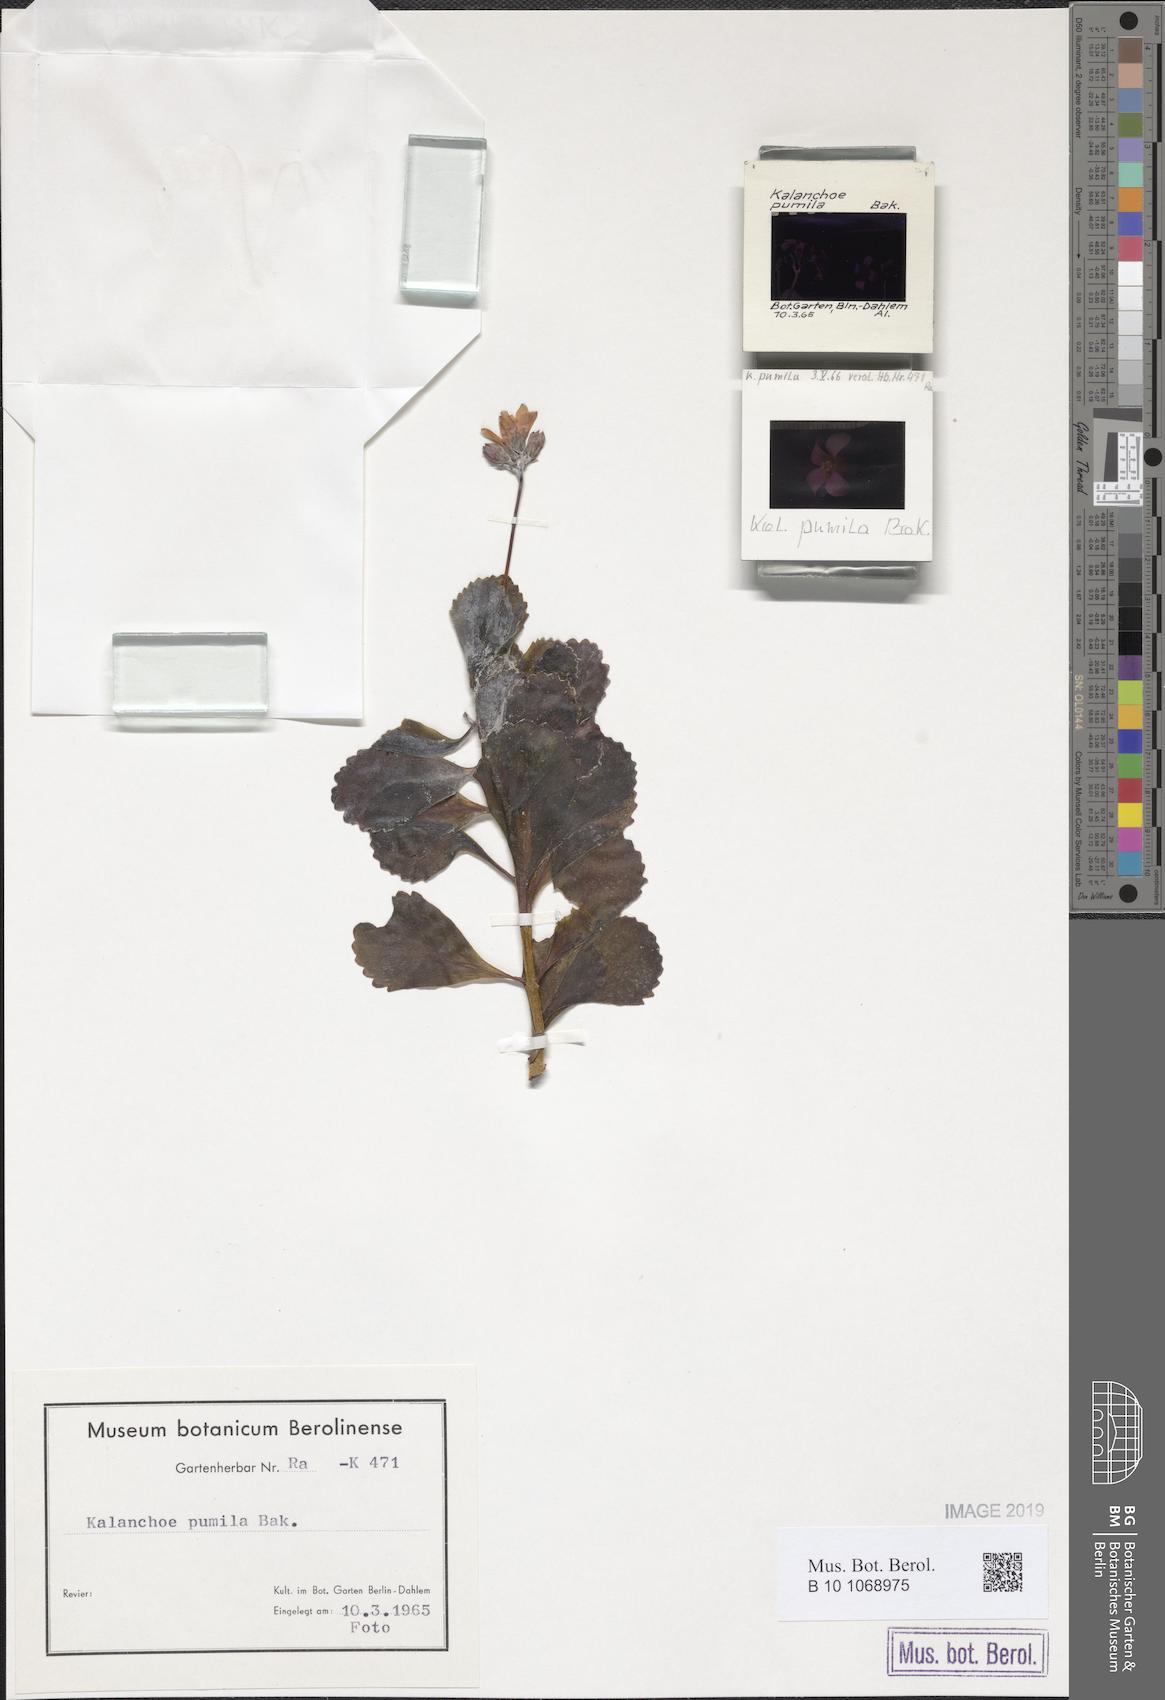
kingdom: Plantae
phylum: Tracheophyta
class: Magnoliopsida
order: Saxifragales
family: Crassulaceae
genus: Kalanchoe
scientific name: Kalanchoe pumila
